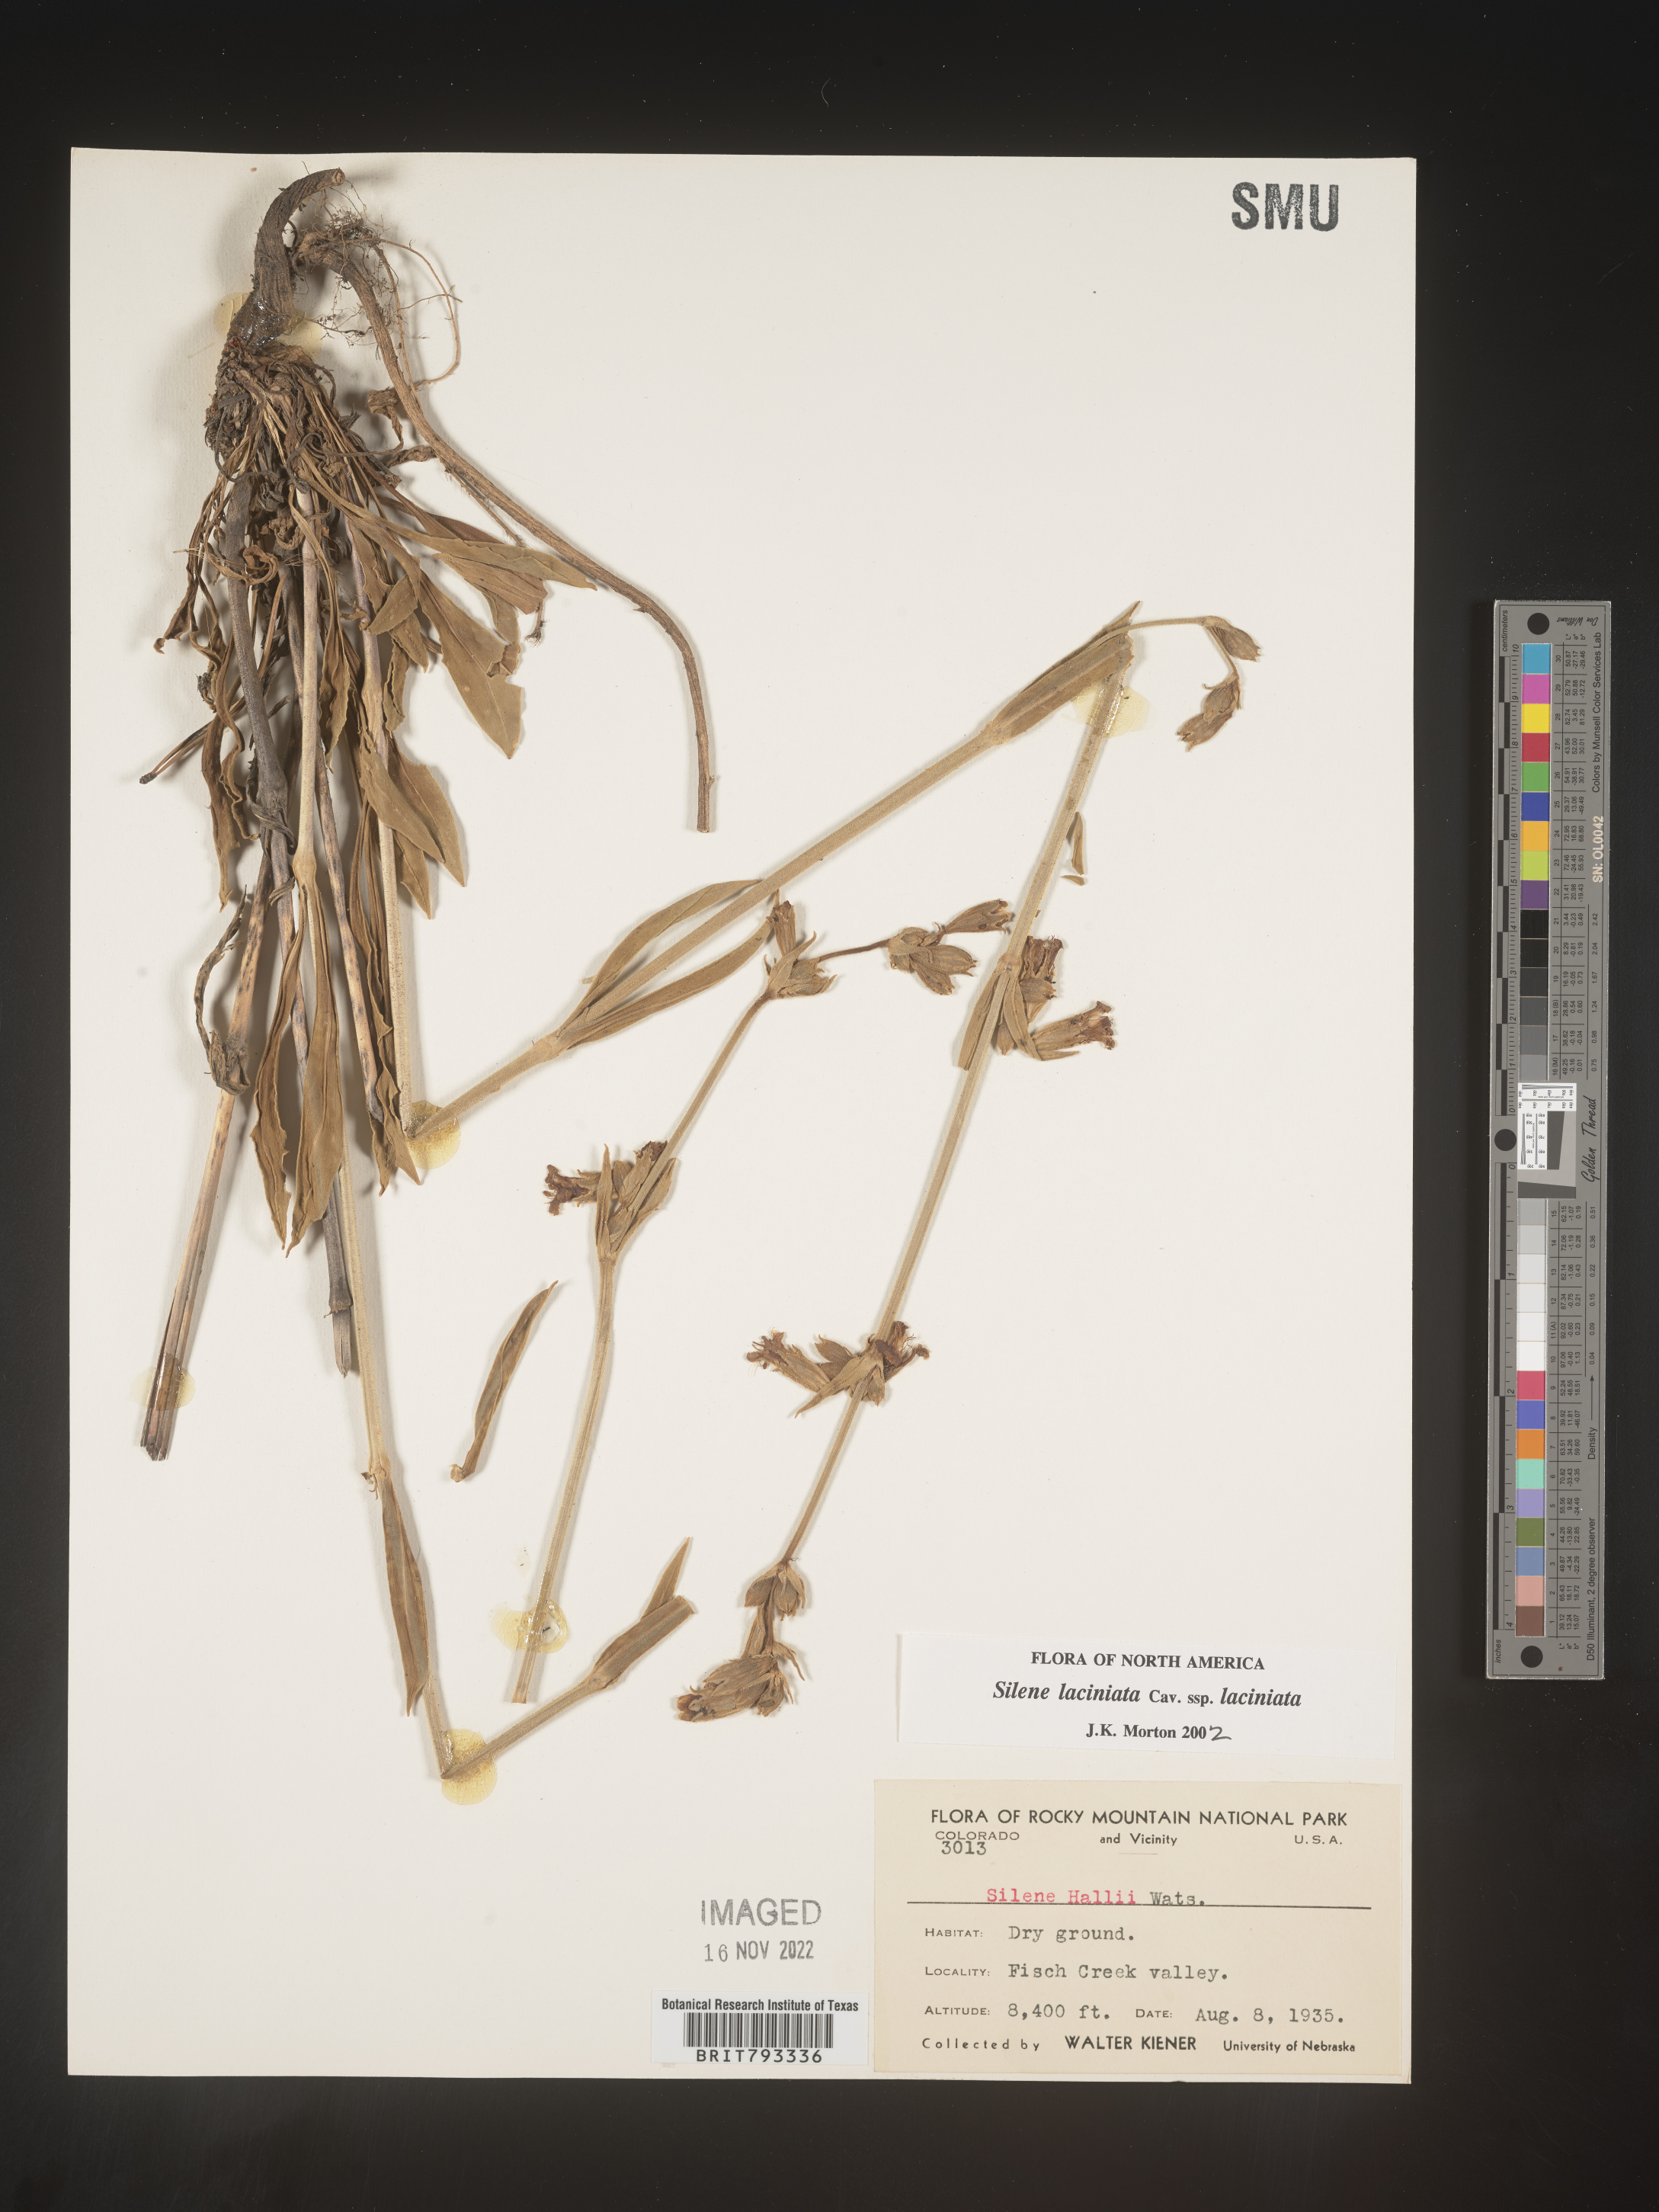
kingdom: Plantae
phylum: Tracheophyta
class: Magnoliopsida
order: Caryophyllales
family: Caryophyllaceae
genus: Silene
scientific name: Silene laciniata
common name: Indian-pink
